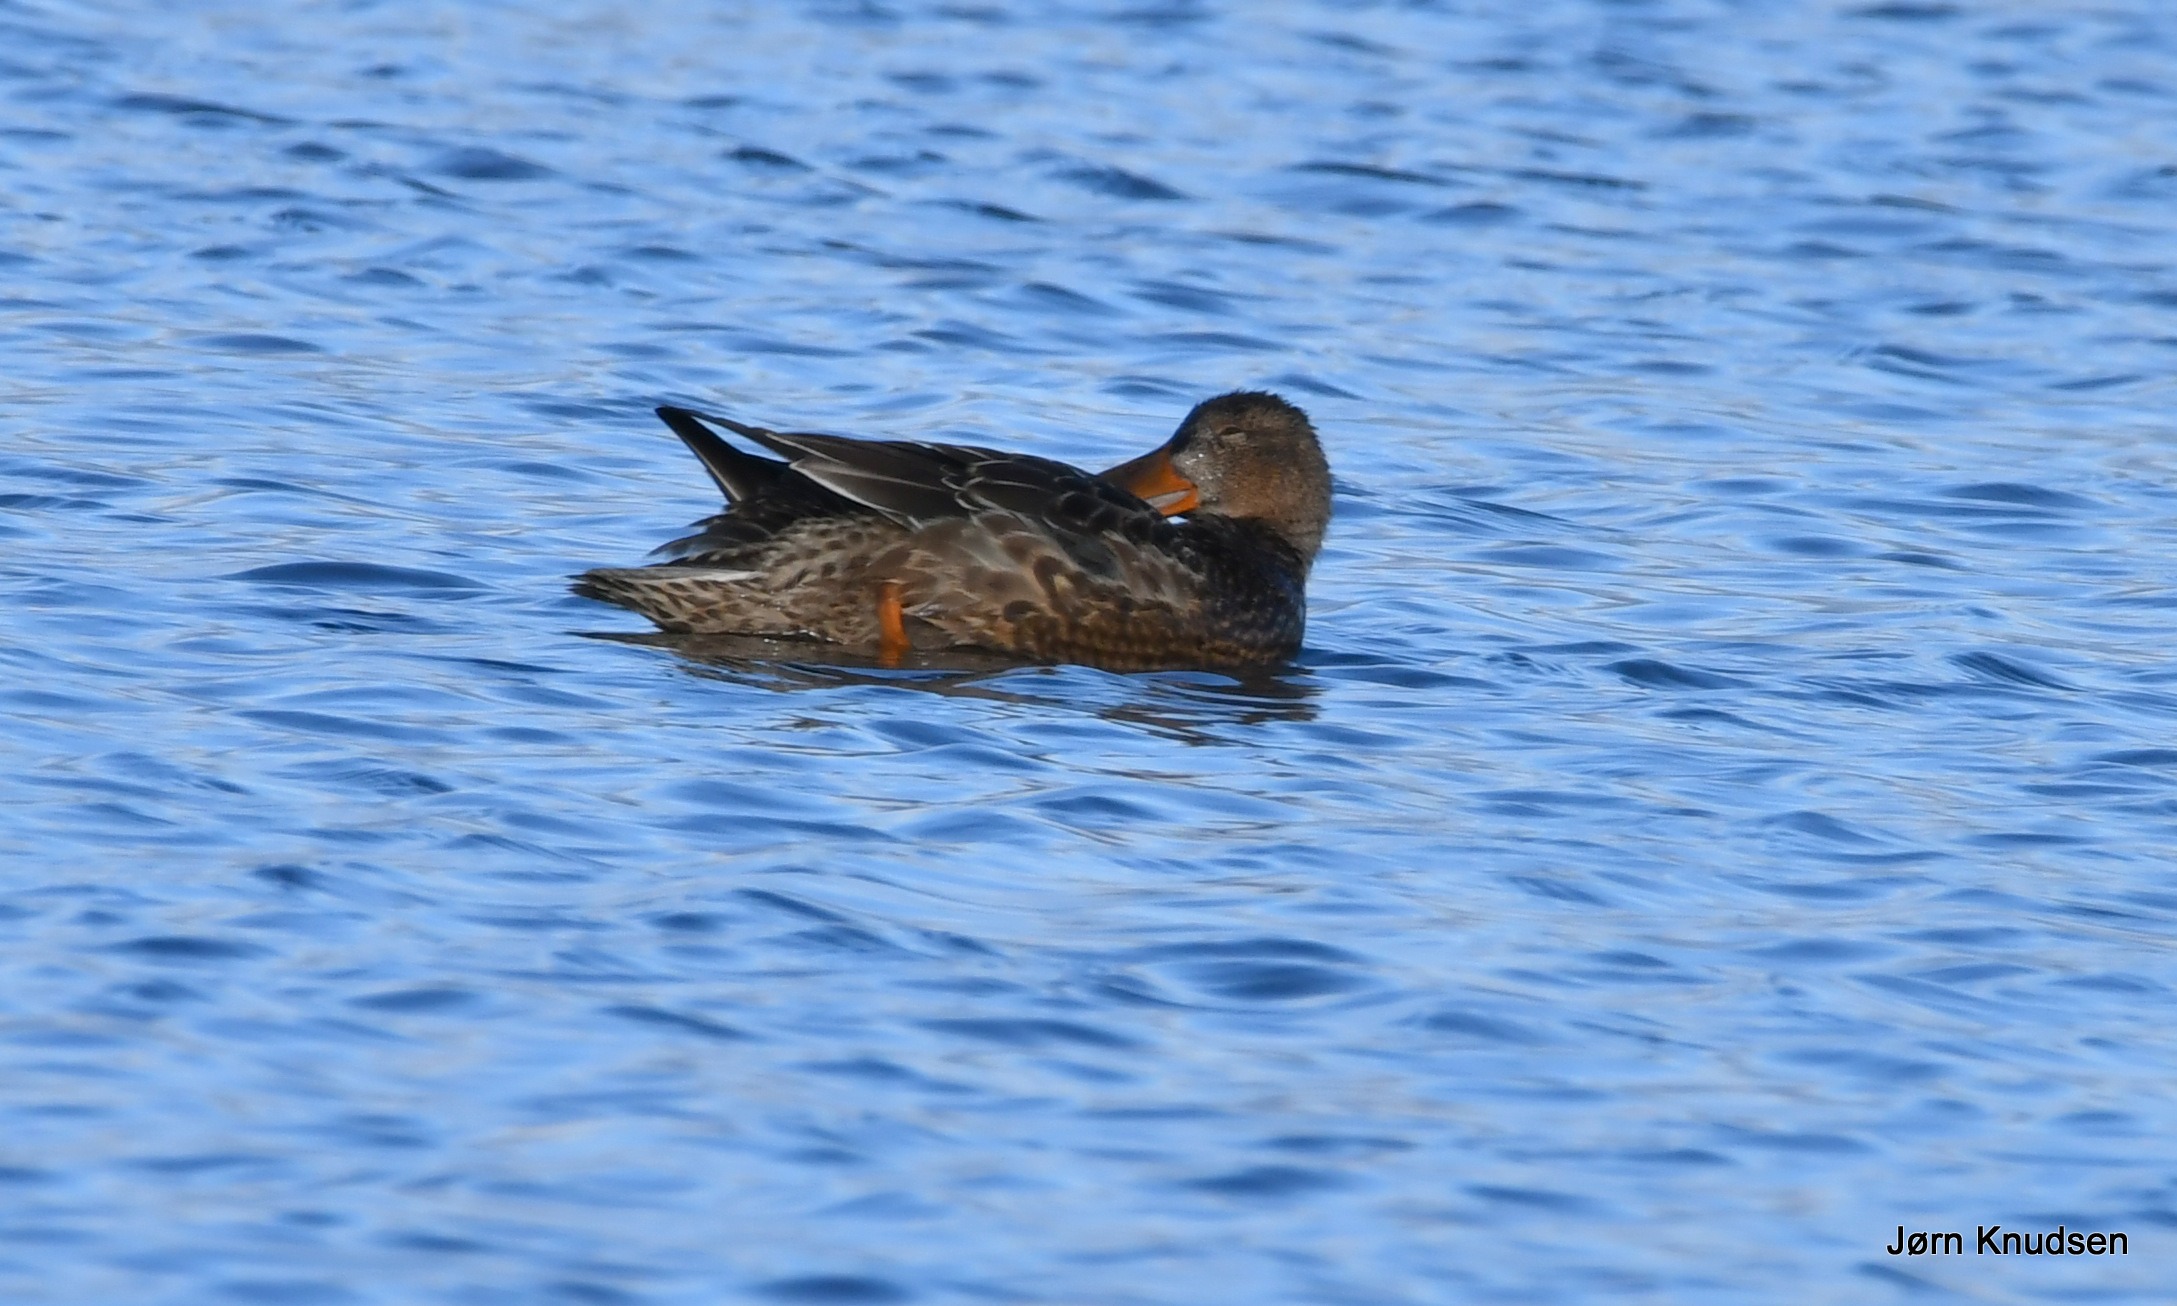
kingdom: Animalia
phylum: Chordata
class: Aves
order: Anseriformes
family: Anatidae
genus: Spatula
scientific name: Spatula clypeata
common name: Skeand
